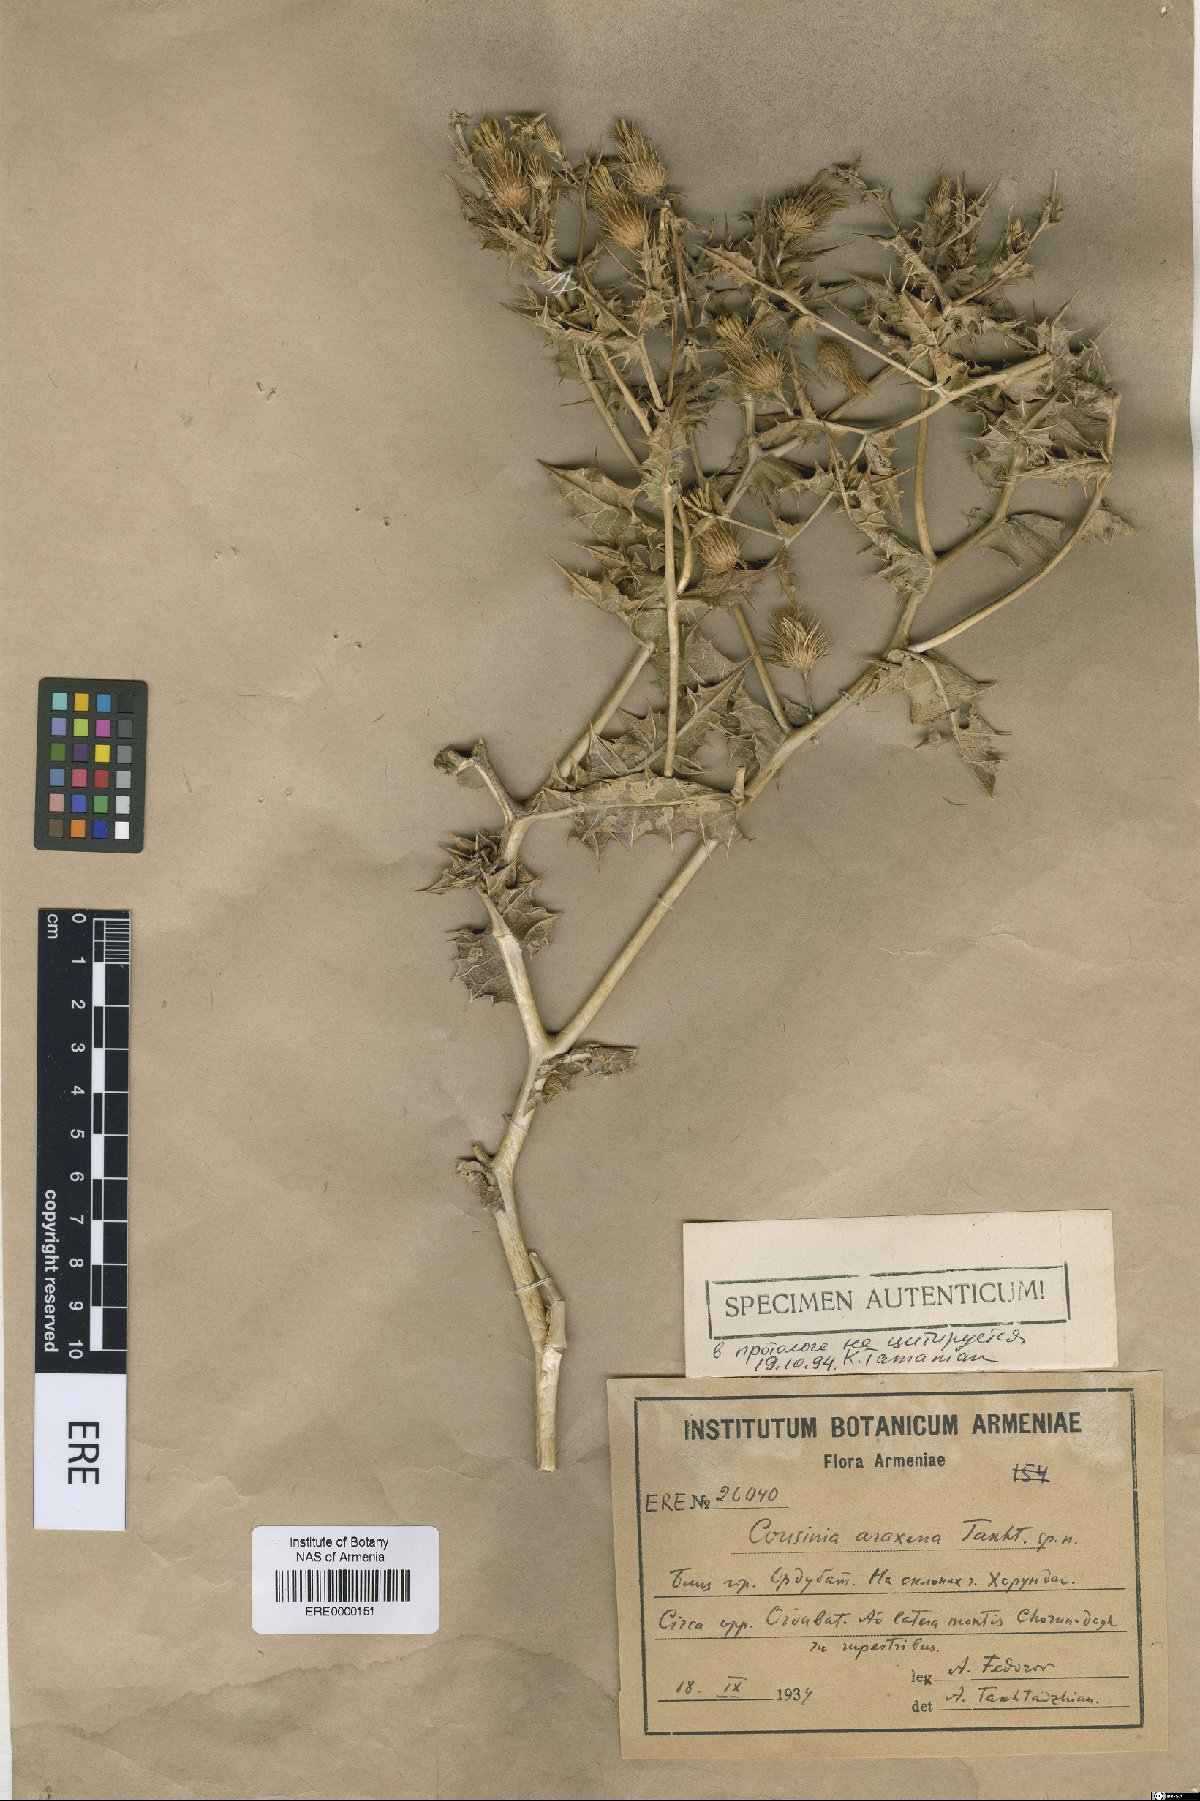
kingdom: Plantae
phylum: Tracheophyta
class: Magnoliopsida
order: Asterales
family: Asteraceae
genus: Cousinia
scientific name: Cousinia araxena
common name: Araxian cousinia
